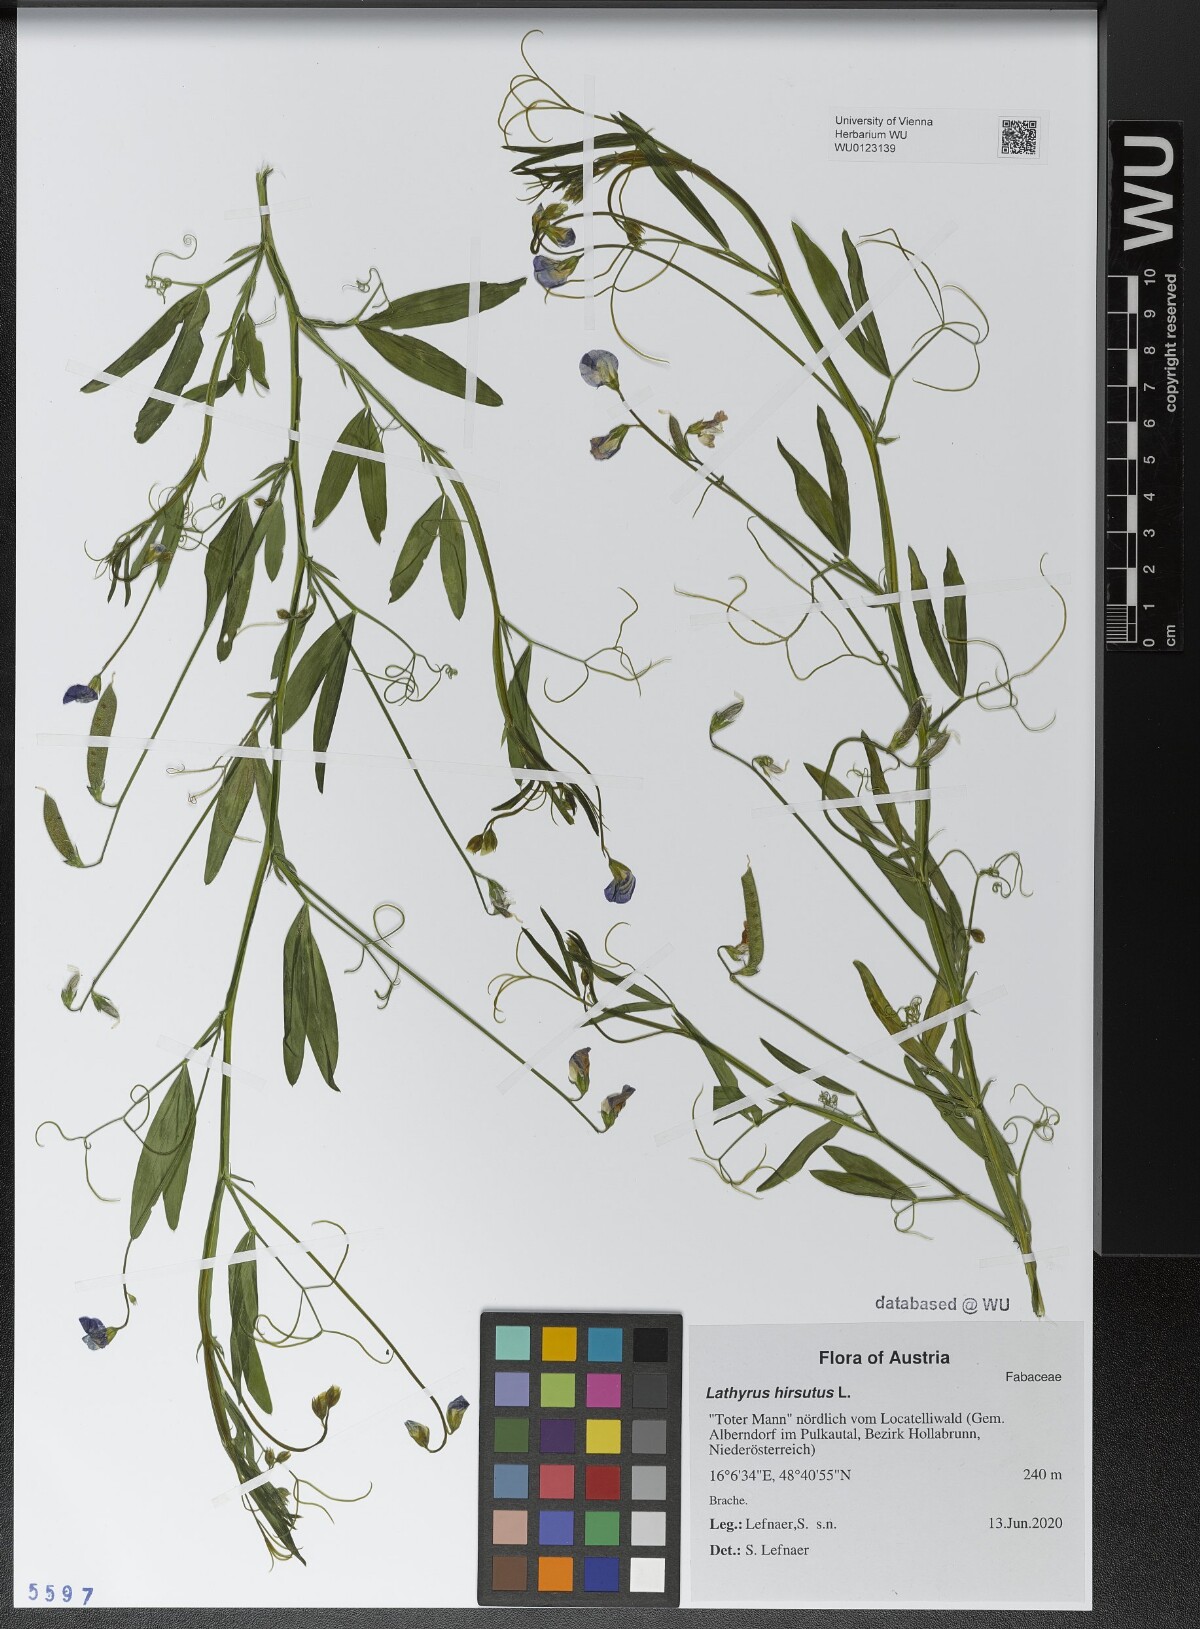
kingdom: Plantae
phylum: Tracheophyta
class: Magnoliopsida
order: Fabales
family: Fabaceae
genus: Lathyrus
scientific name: Lathyrus hirsutus
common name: Hairy vetchling
